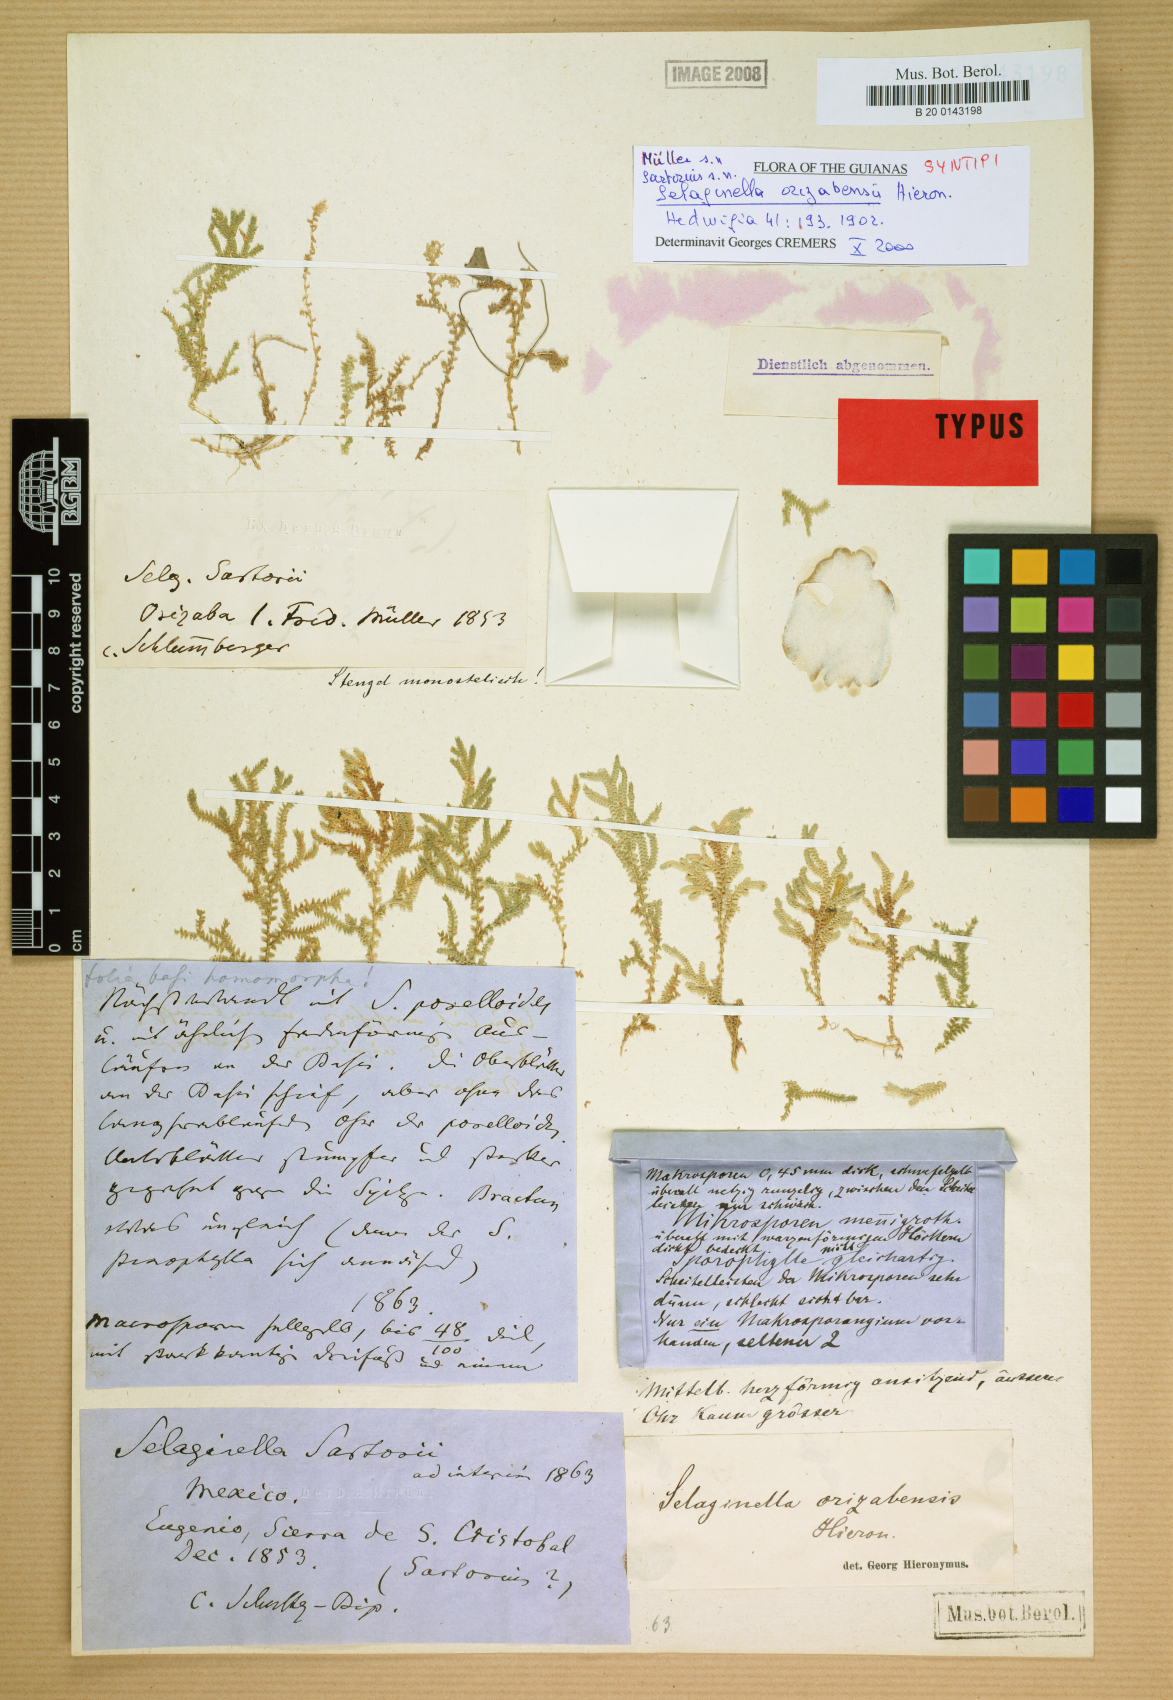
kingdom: Plantae
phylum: Tracheophyta
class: Lycopodiopsida
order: Selaginellales
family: Selaginellaceae
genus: Selaginella
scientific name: Selaginella orizabensis
